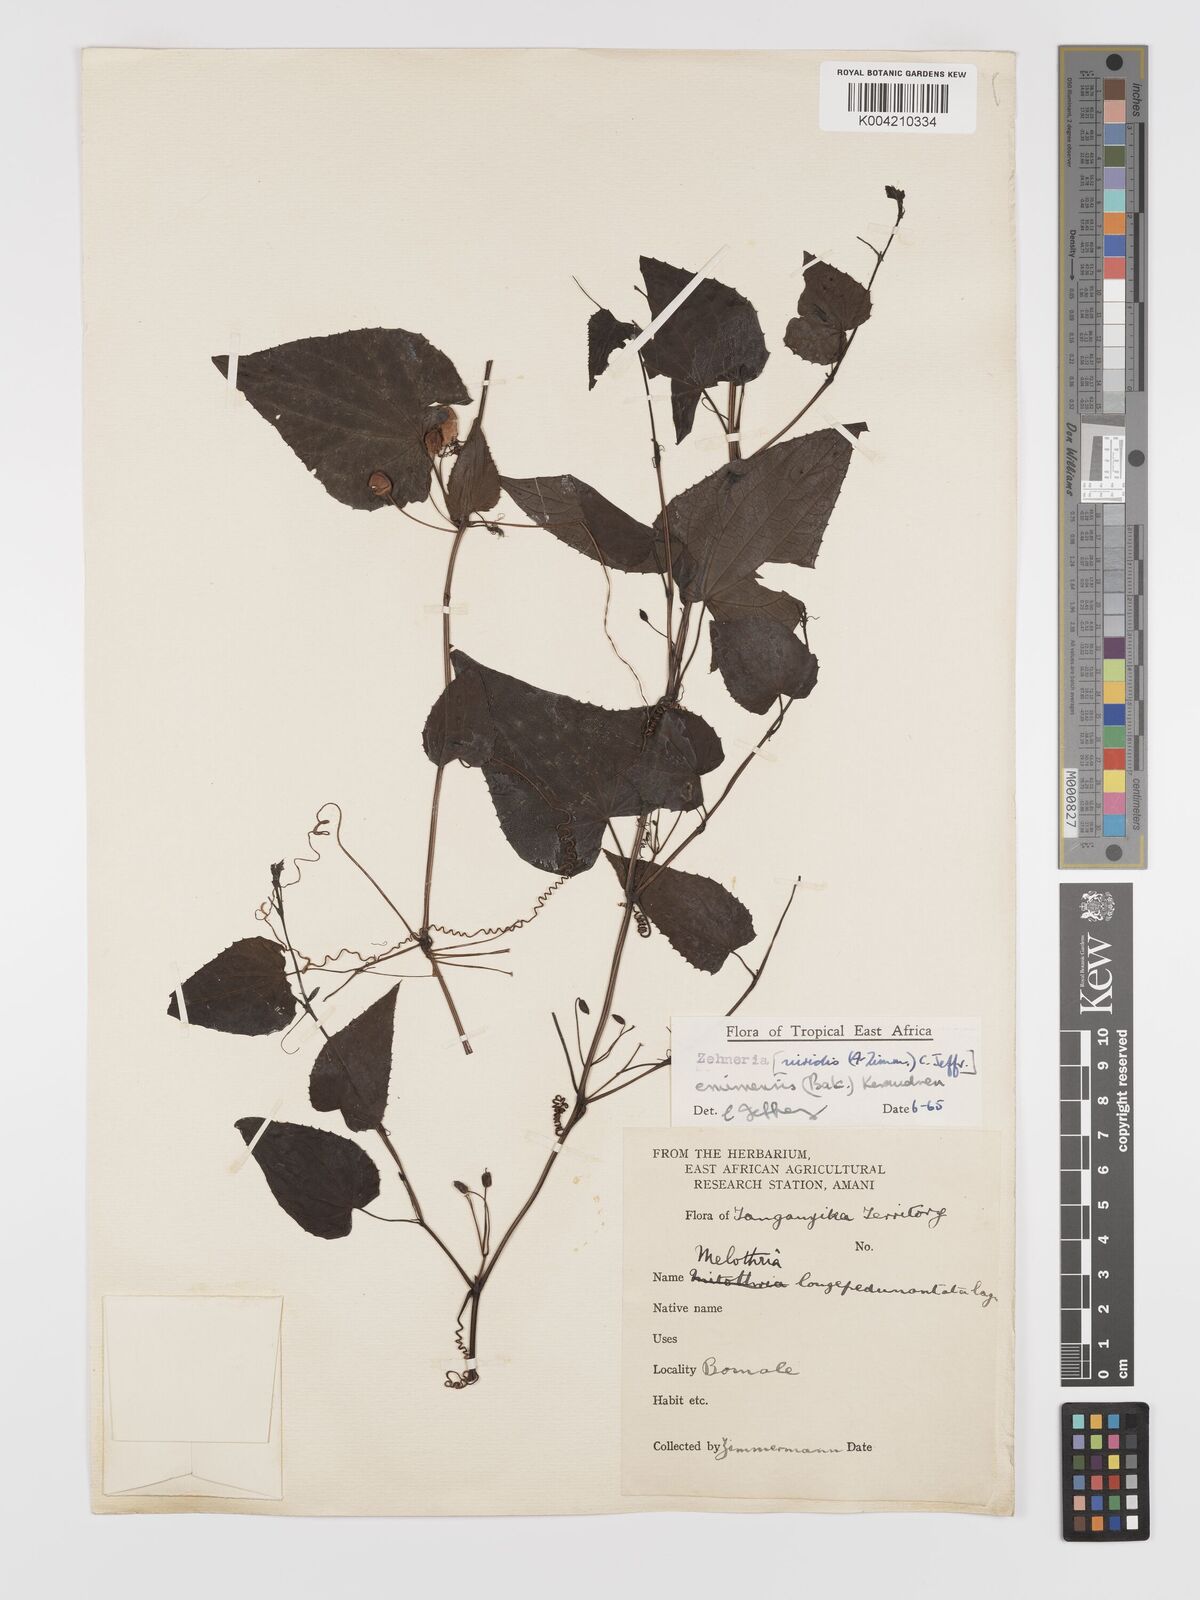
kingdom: Plantae
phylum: Tracheophyta
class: Magnoliopsida
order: Cucurbitales
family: Cucurbitaceae
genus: Zehneria
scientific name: Zehneria emirnensis
